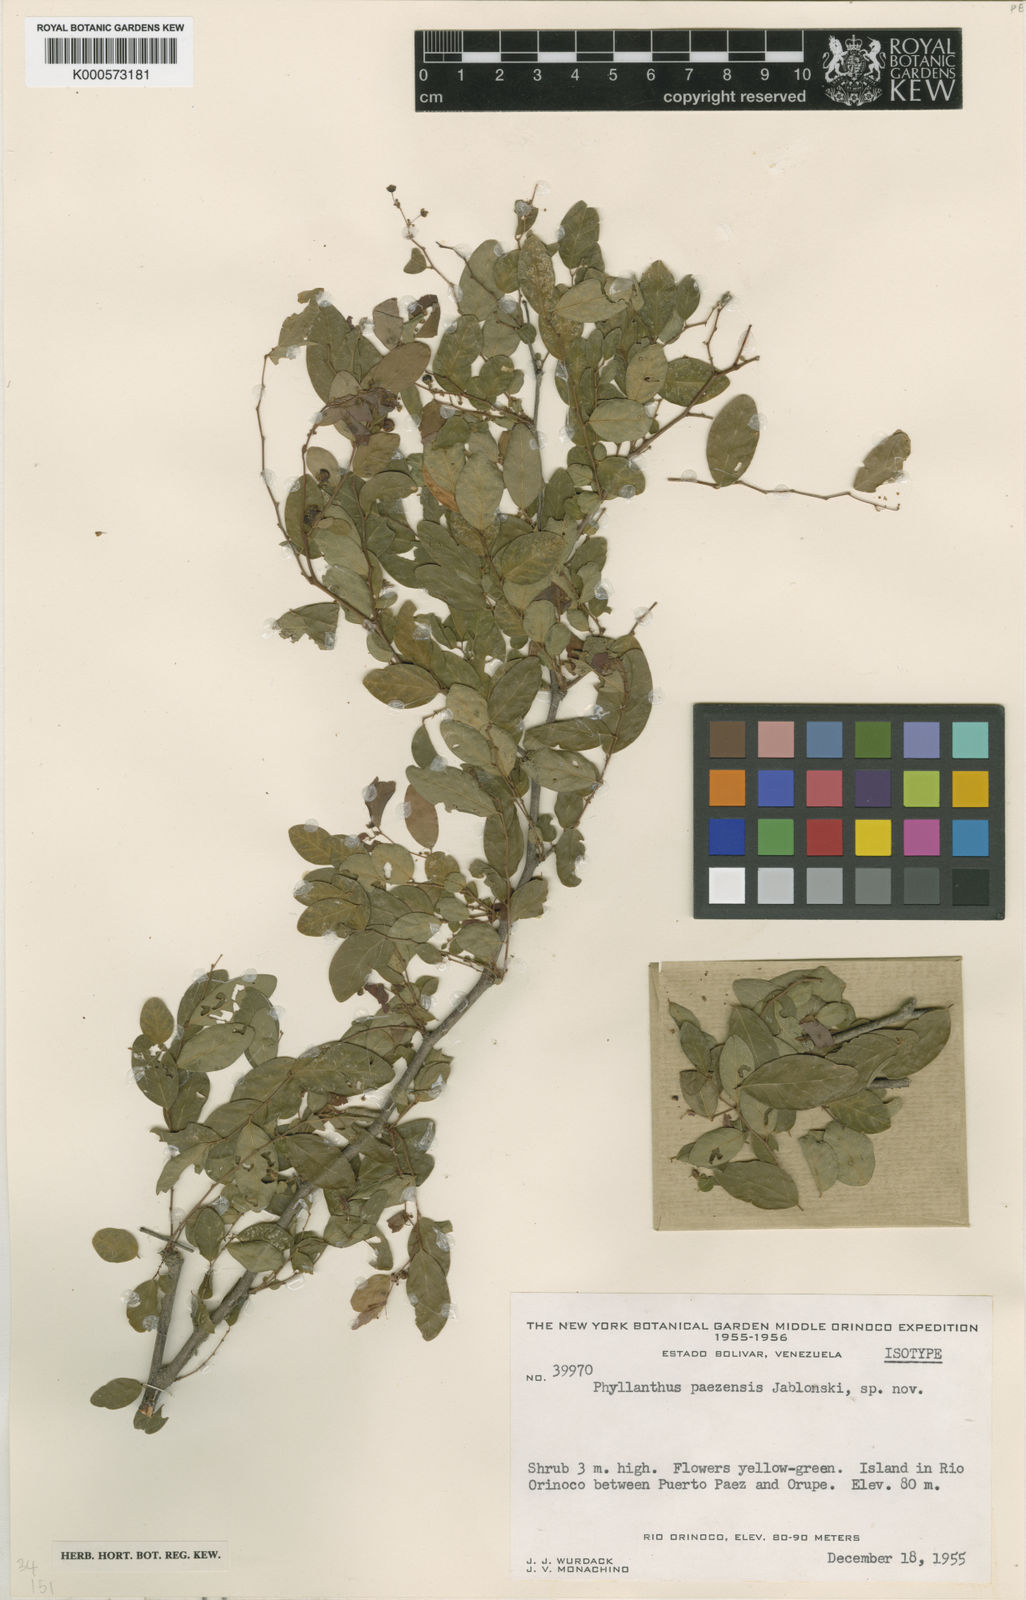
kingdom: Plantae
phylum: Tracheophyta
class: Magnoliopsida
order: Malpighiales
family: Phyllanthaceae
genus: Phyllanthus
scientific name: Phyllanthus paezensis
